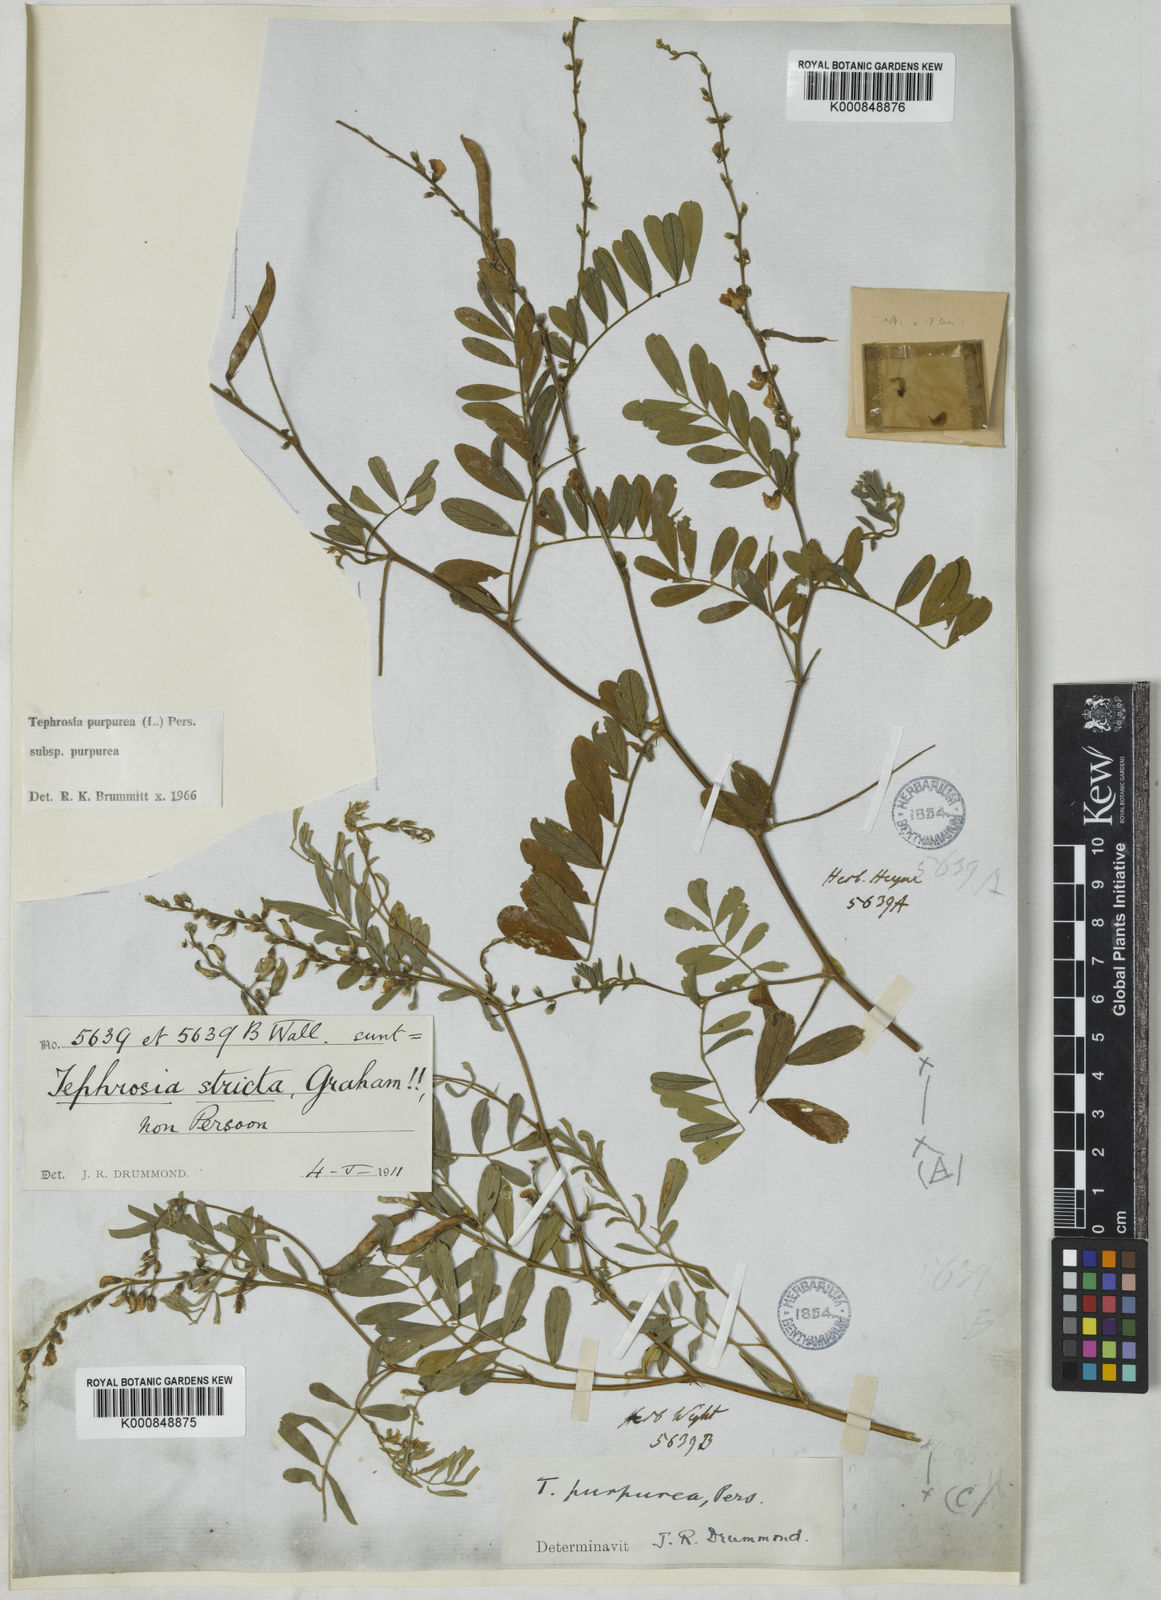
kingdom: Plantae
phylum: Tracheophyta
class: Magnoliopsida
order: Fabales
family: Fabaceae
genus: Tephrosia
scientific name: Tephrosia purpurea
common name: Fishpoison
